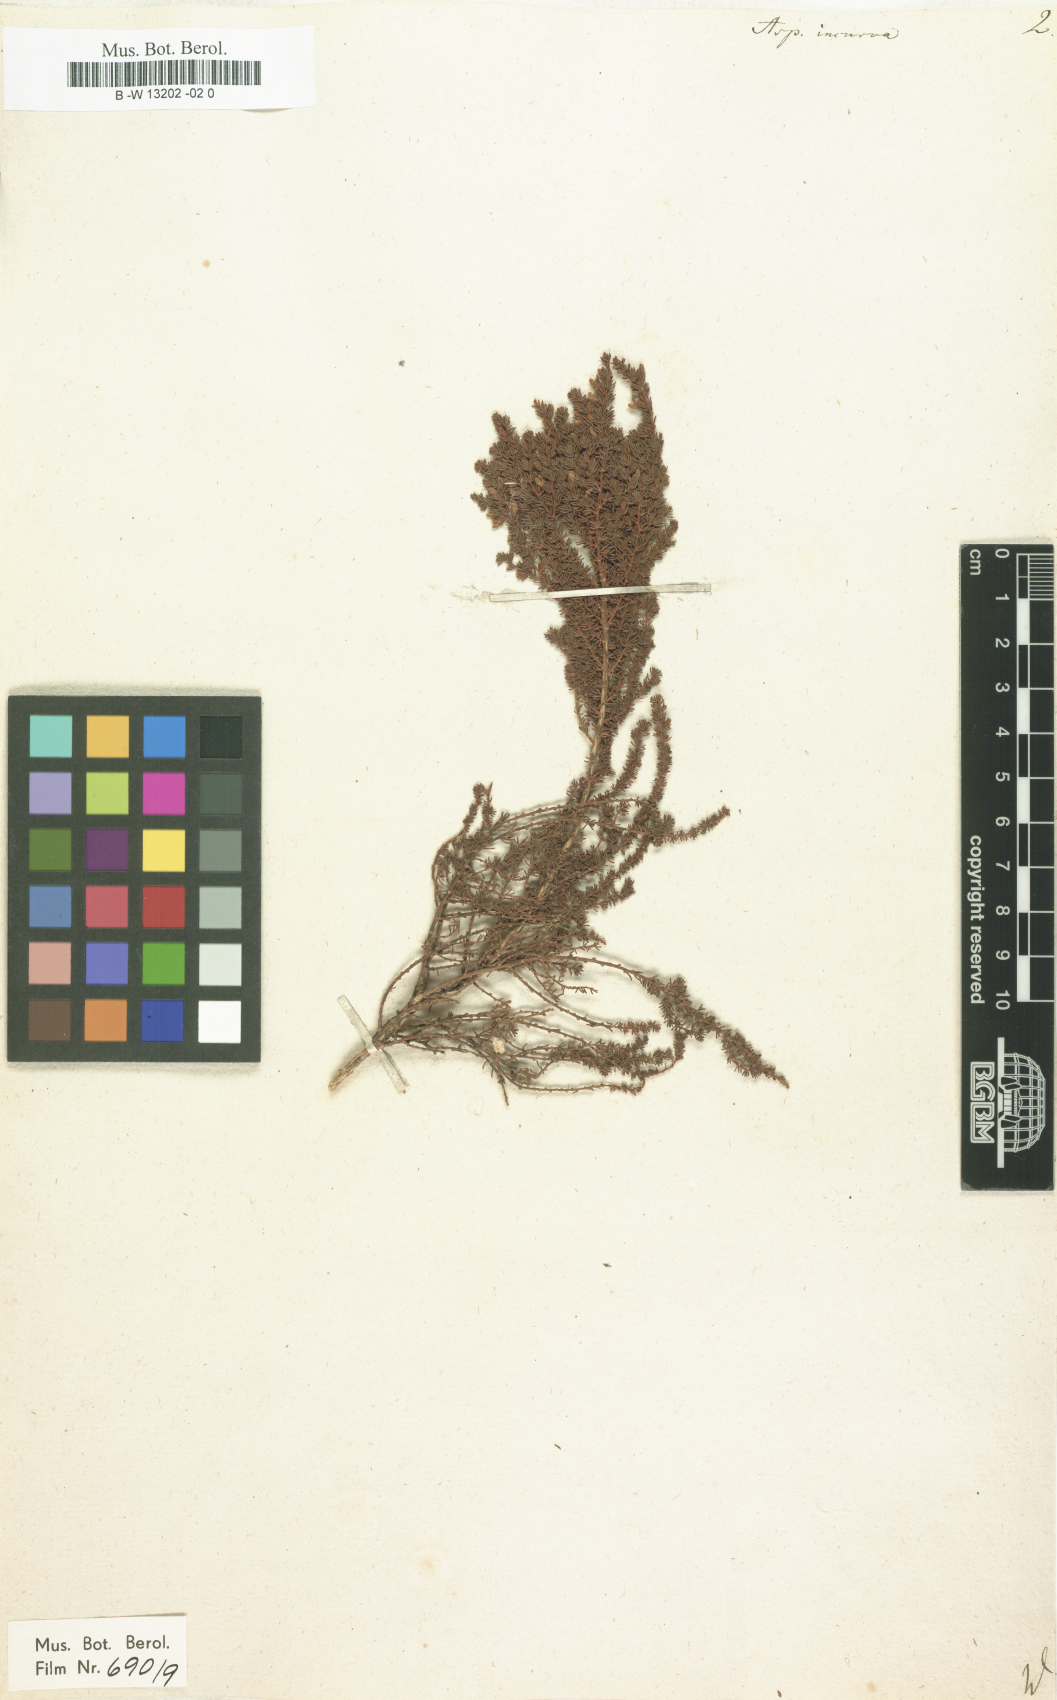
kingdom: Plantae
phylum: Tracheophyta
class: Magnoliopsida
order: Fabales
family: Fabaceae
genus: Aspalathus
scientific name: Aspalathus incurva
